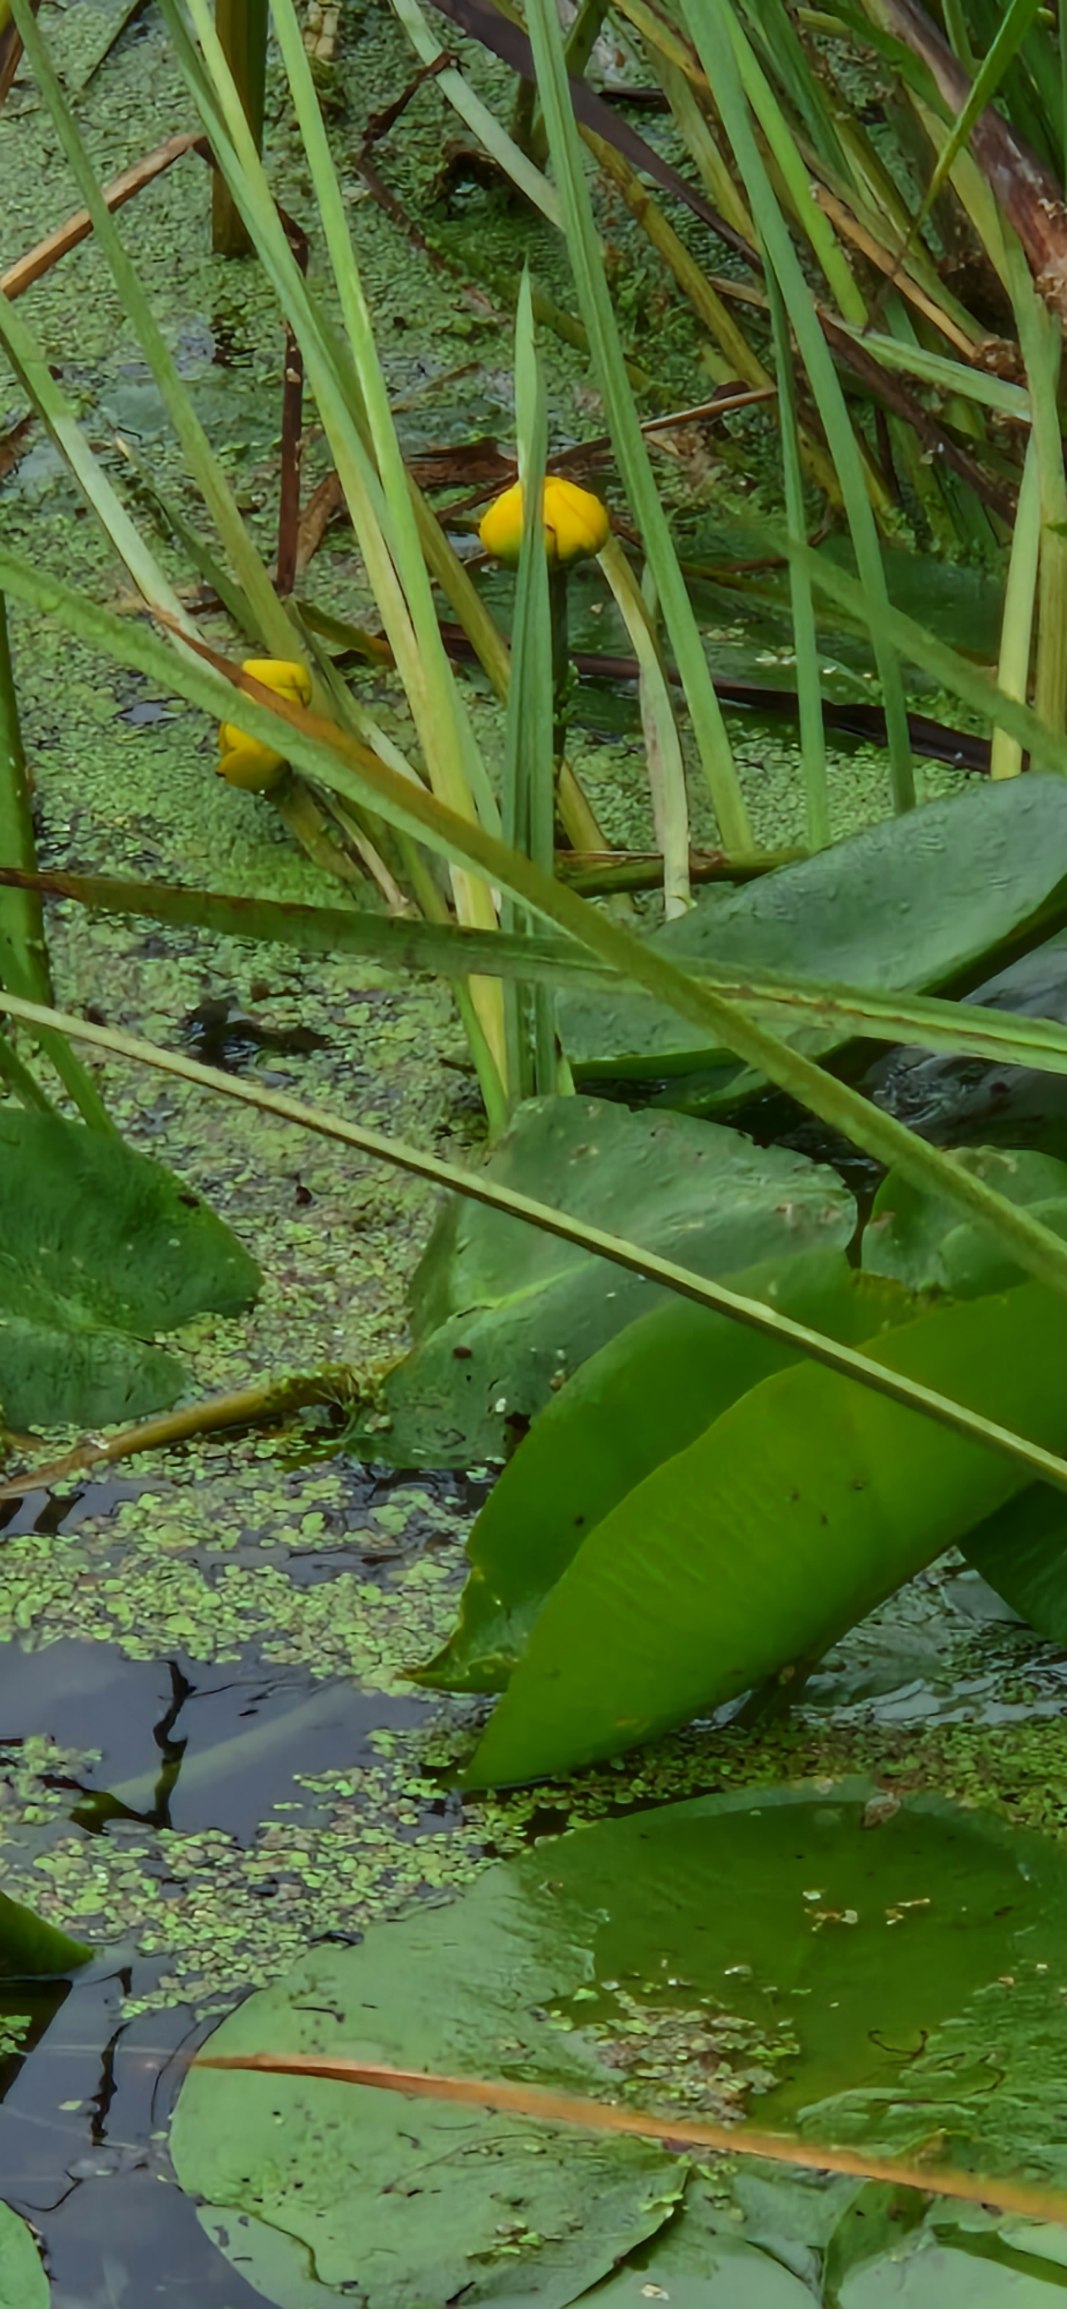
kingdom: Plantae
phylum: Tracheophyta
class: Magnoliopsida
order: Nymphaeales
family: Nymphaeaceae
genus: Nuphar
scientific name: Nuphar lutea
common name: Gul åkande
